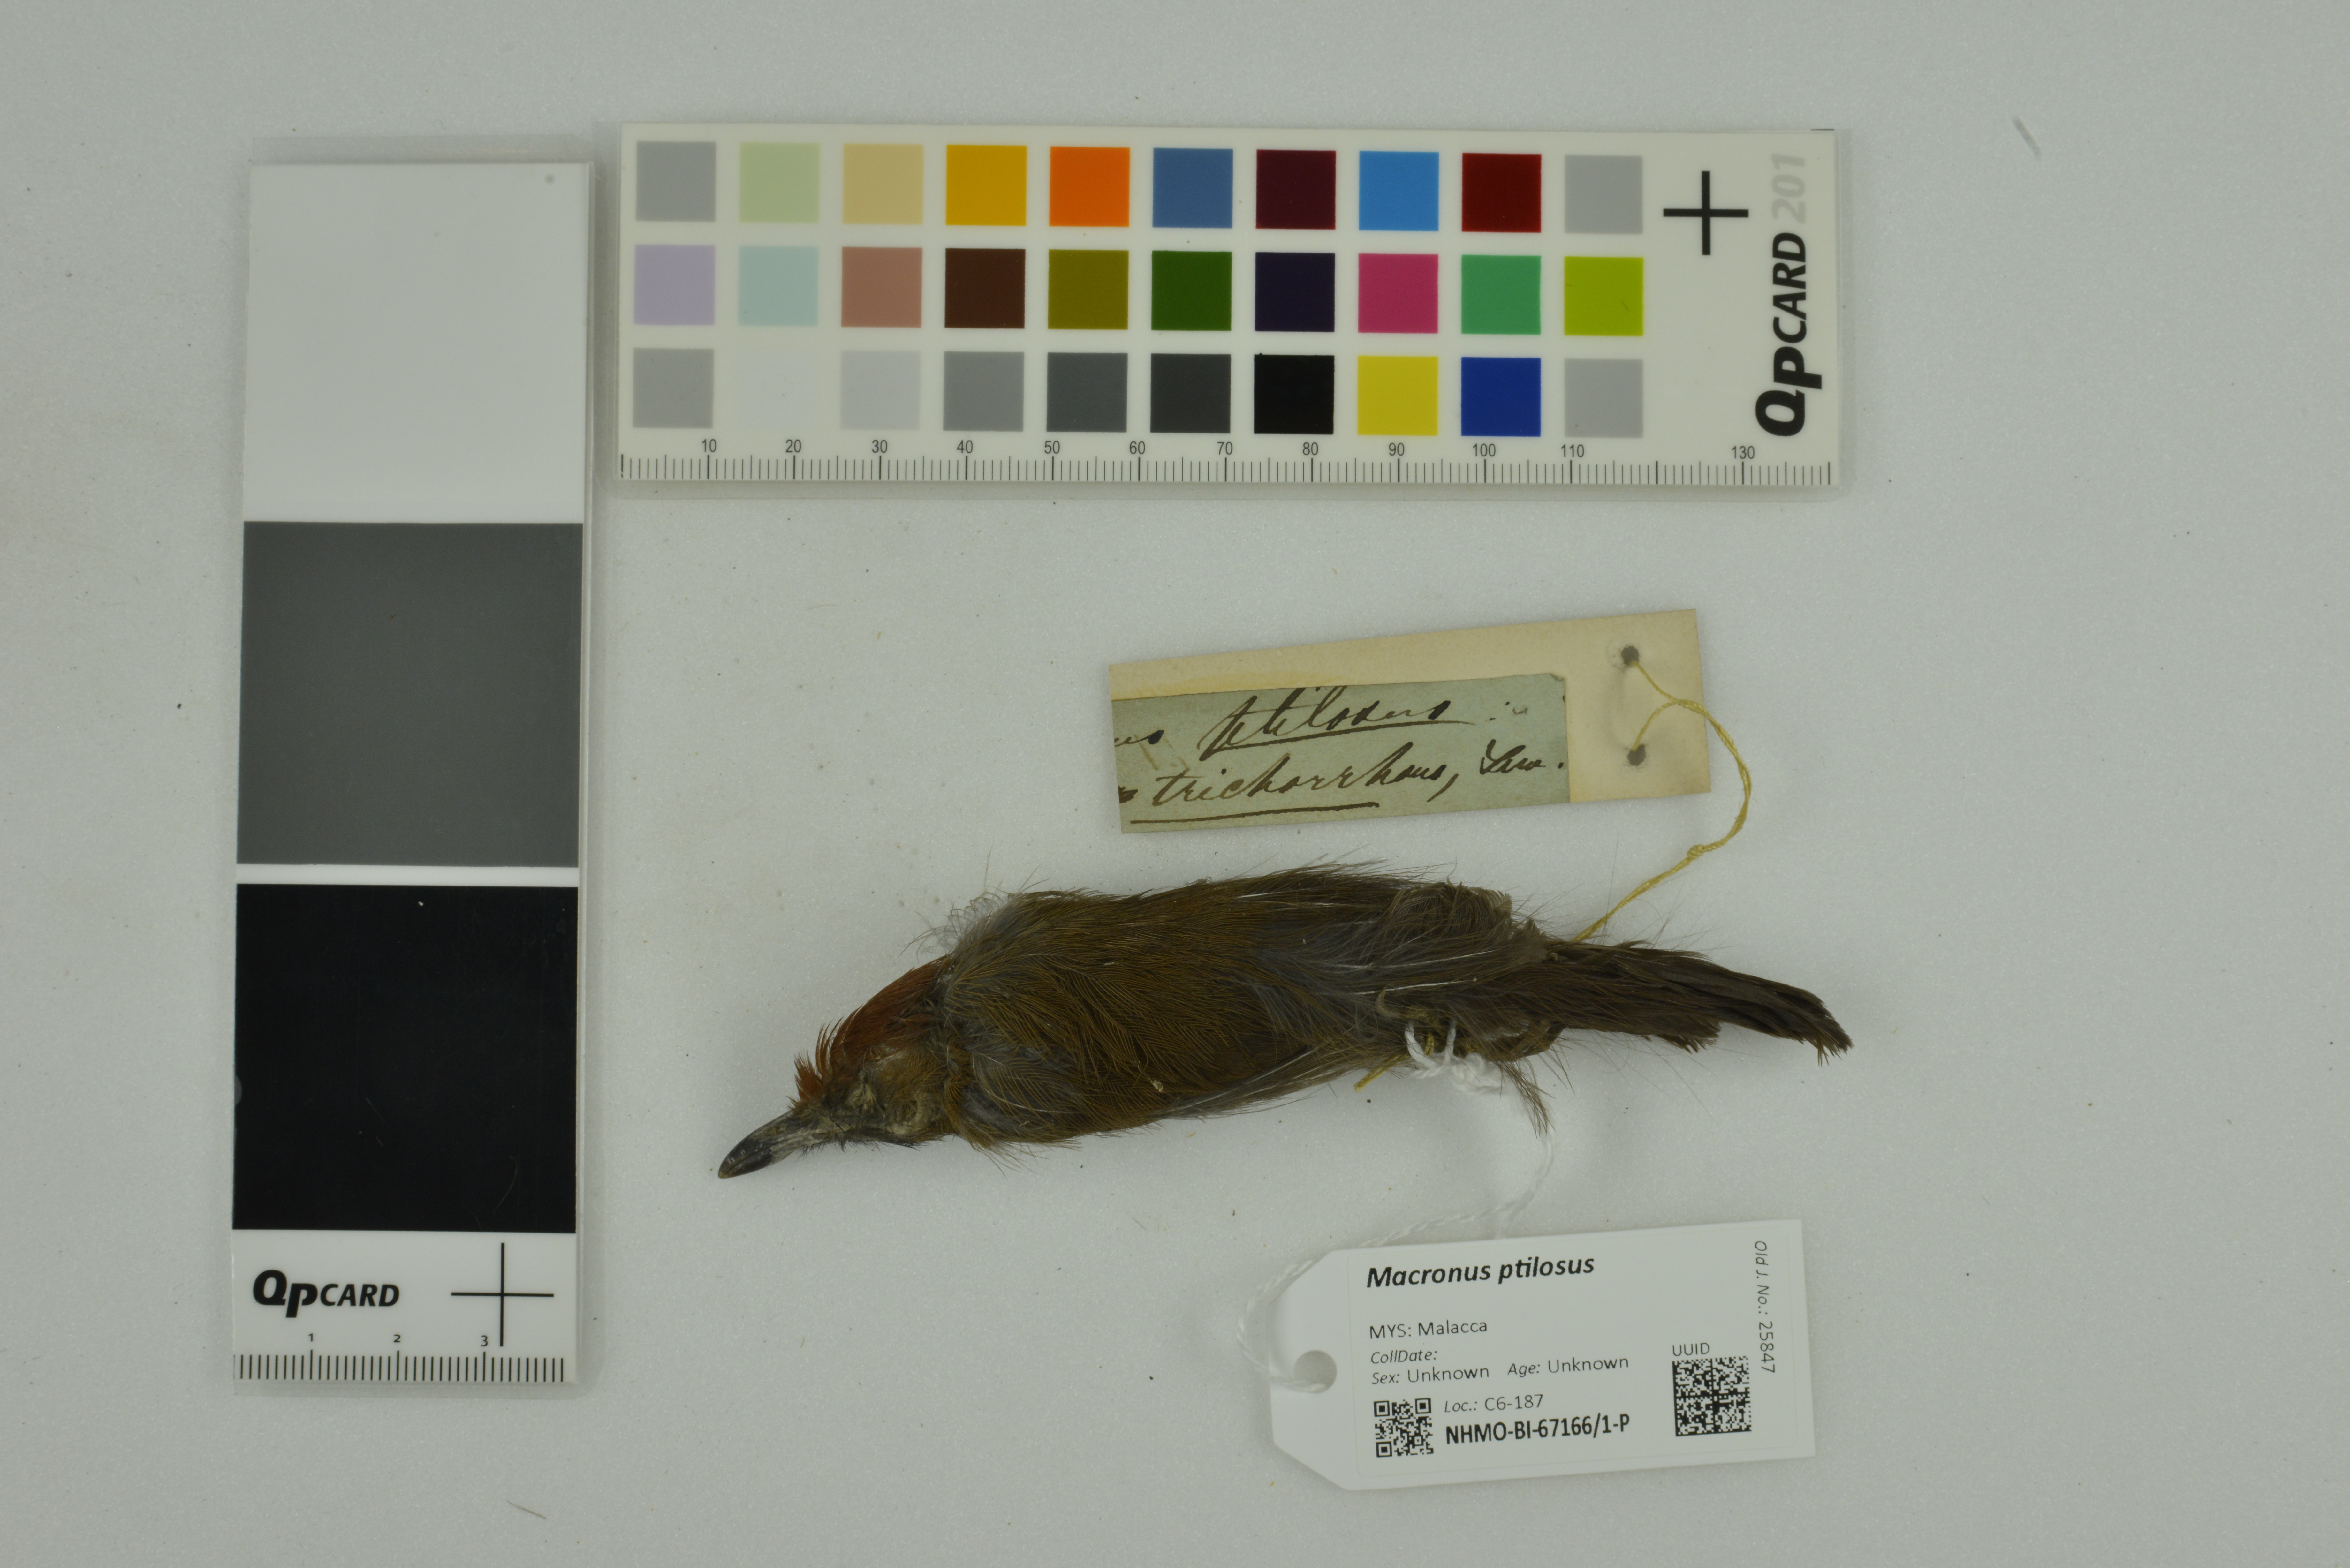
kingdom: Animalia
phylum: Chordata
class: Aves
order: Passeriformes
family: Timaliidae
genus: Macronus
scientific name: Macronus ptilosus
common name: Fluffy-backed tit-babbler
